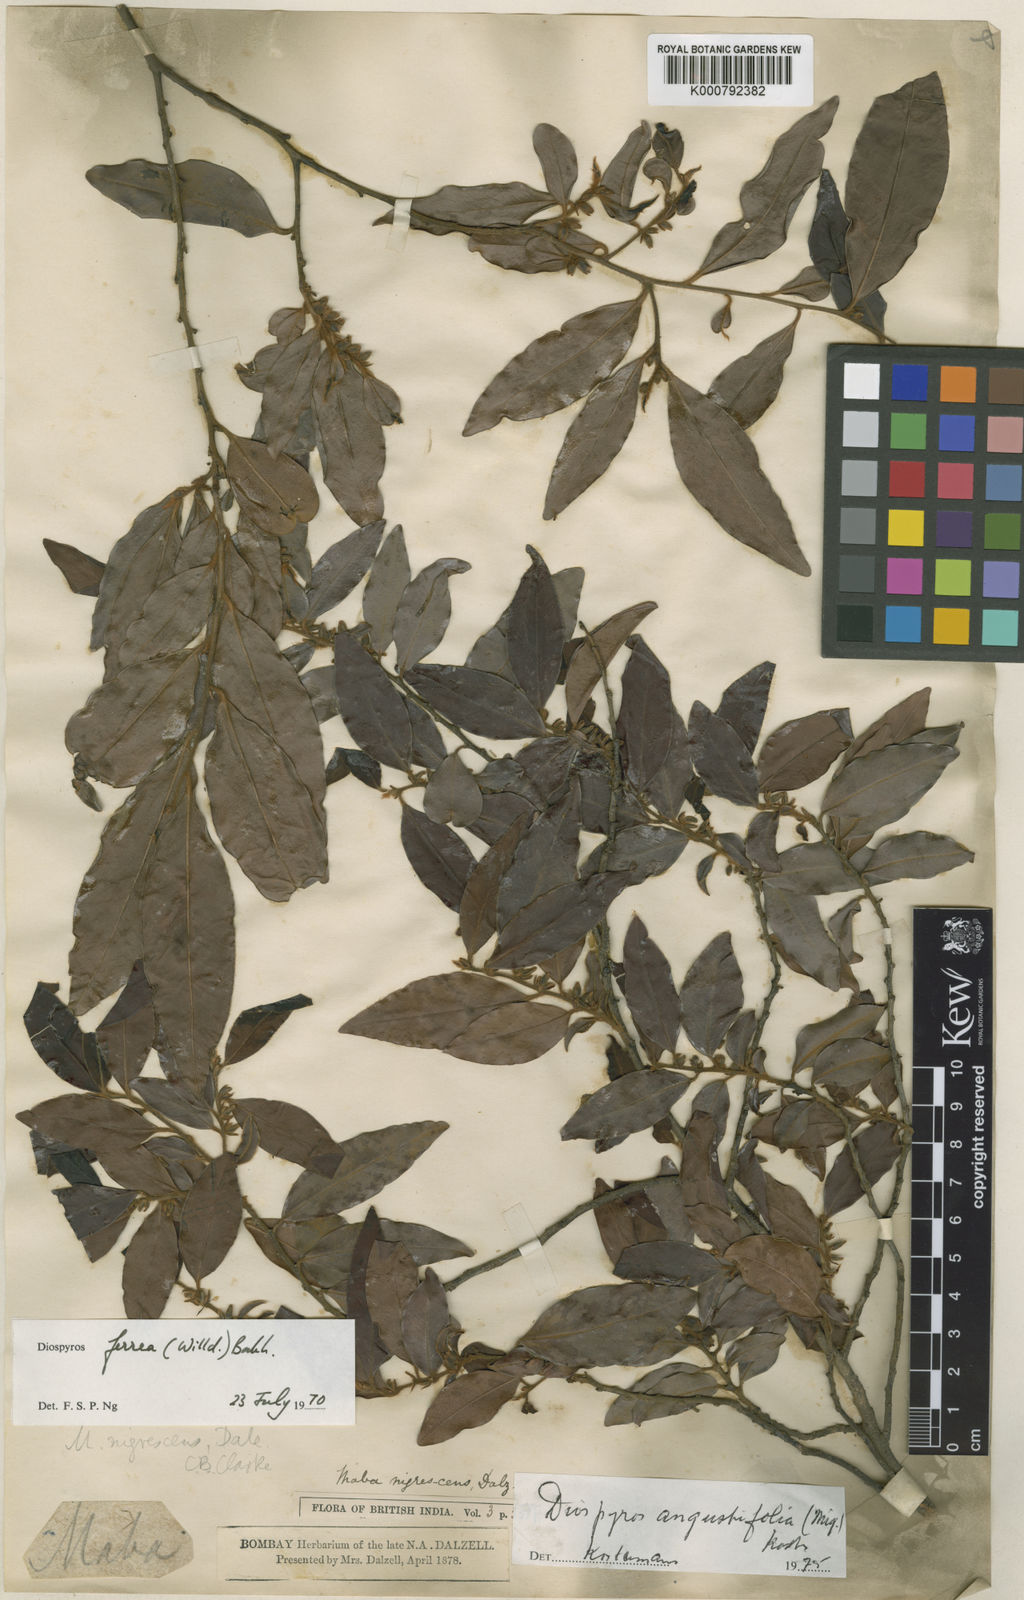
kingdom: Plantae
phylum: Tracheophyta
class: Magnoliopsida
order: Ericales
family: Ebenaceae
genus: Diospyros
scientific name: Diospyros ferrea
